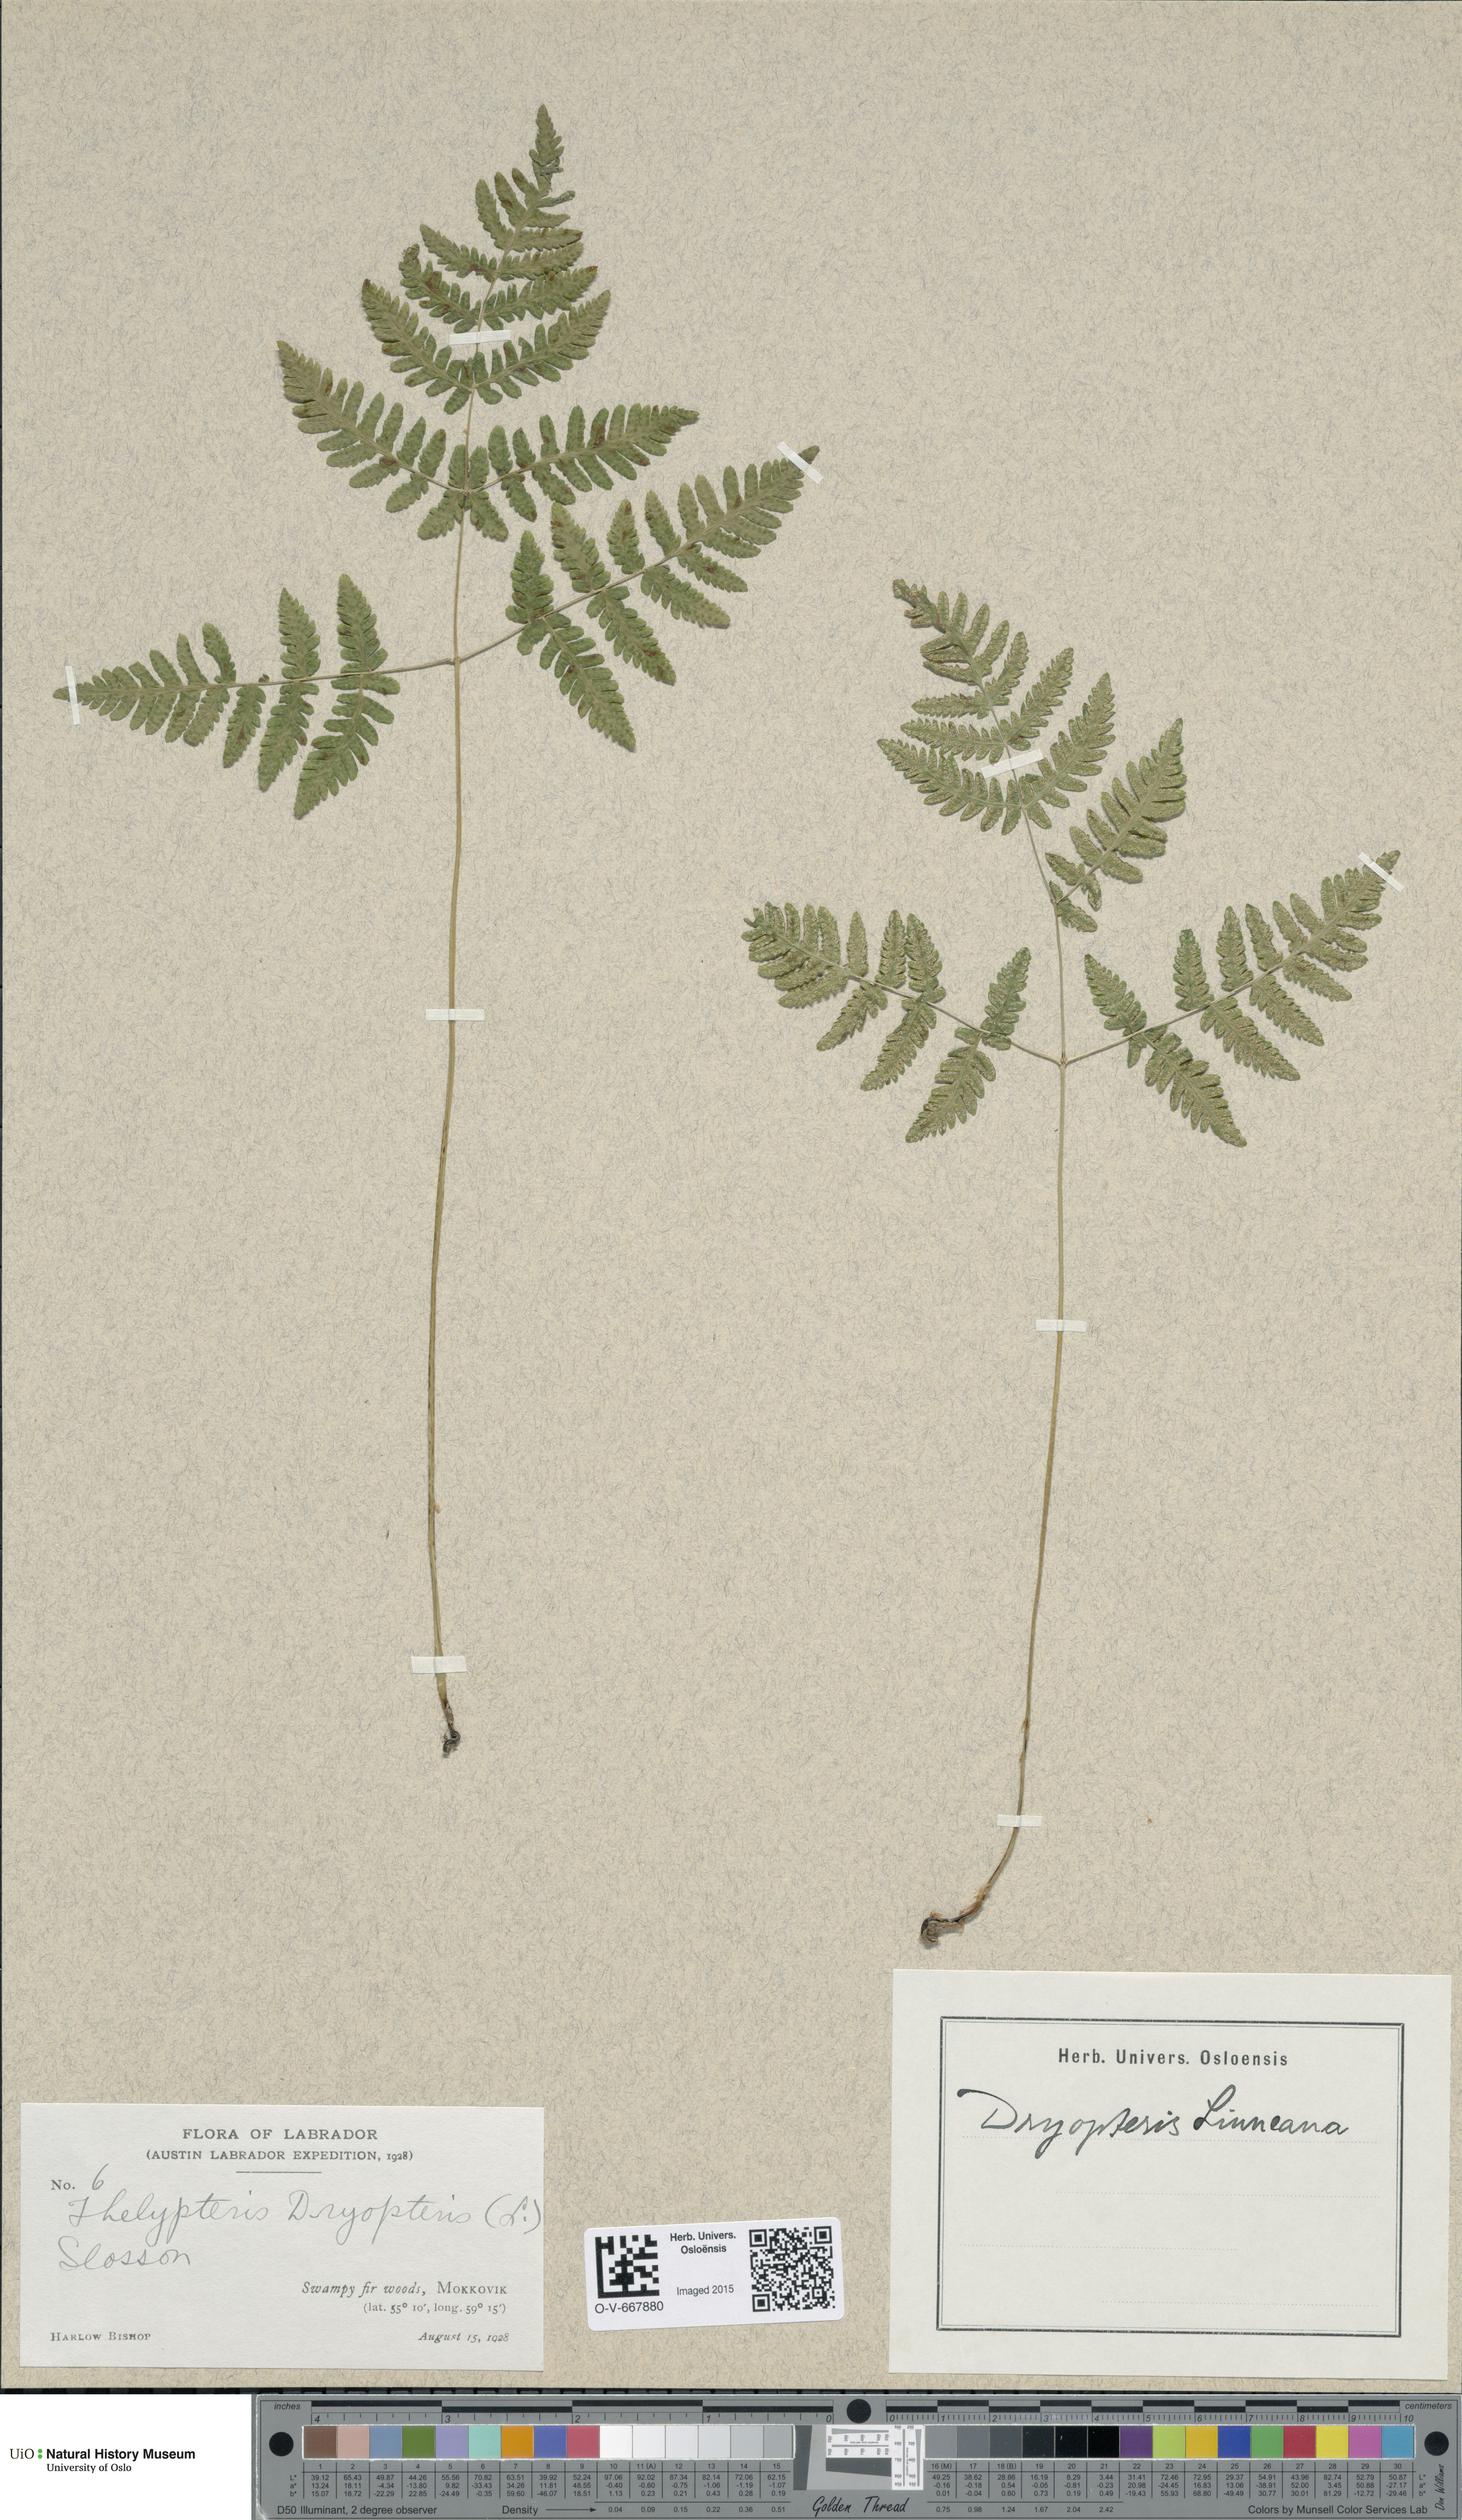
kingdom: Plantae
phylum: Tracheophyta
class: Polypodiopsida
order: Polypodiales
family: Cystopteridaceae
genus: Gymnocarpium
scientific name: Gymnocarpium dryopteris
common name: Oak fern
